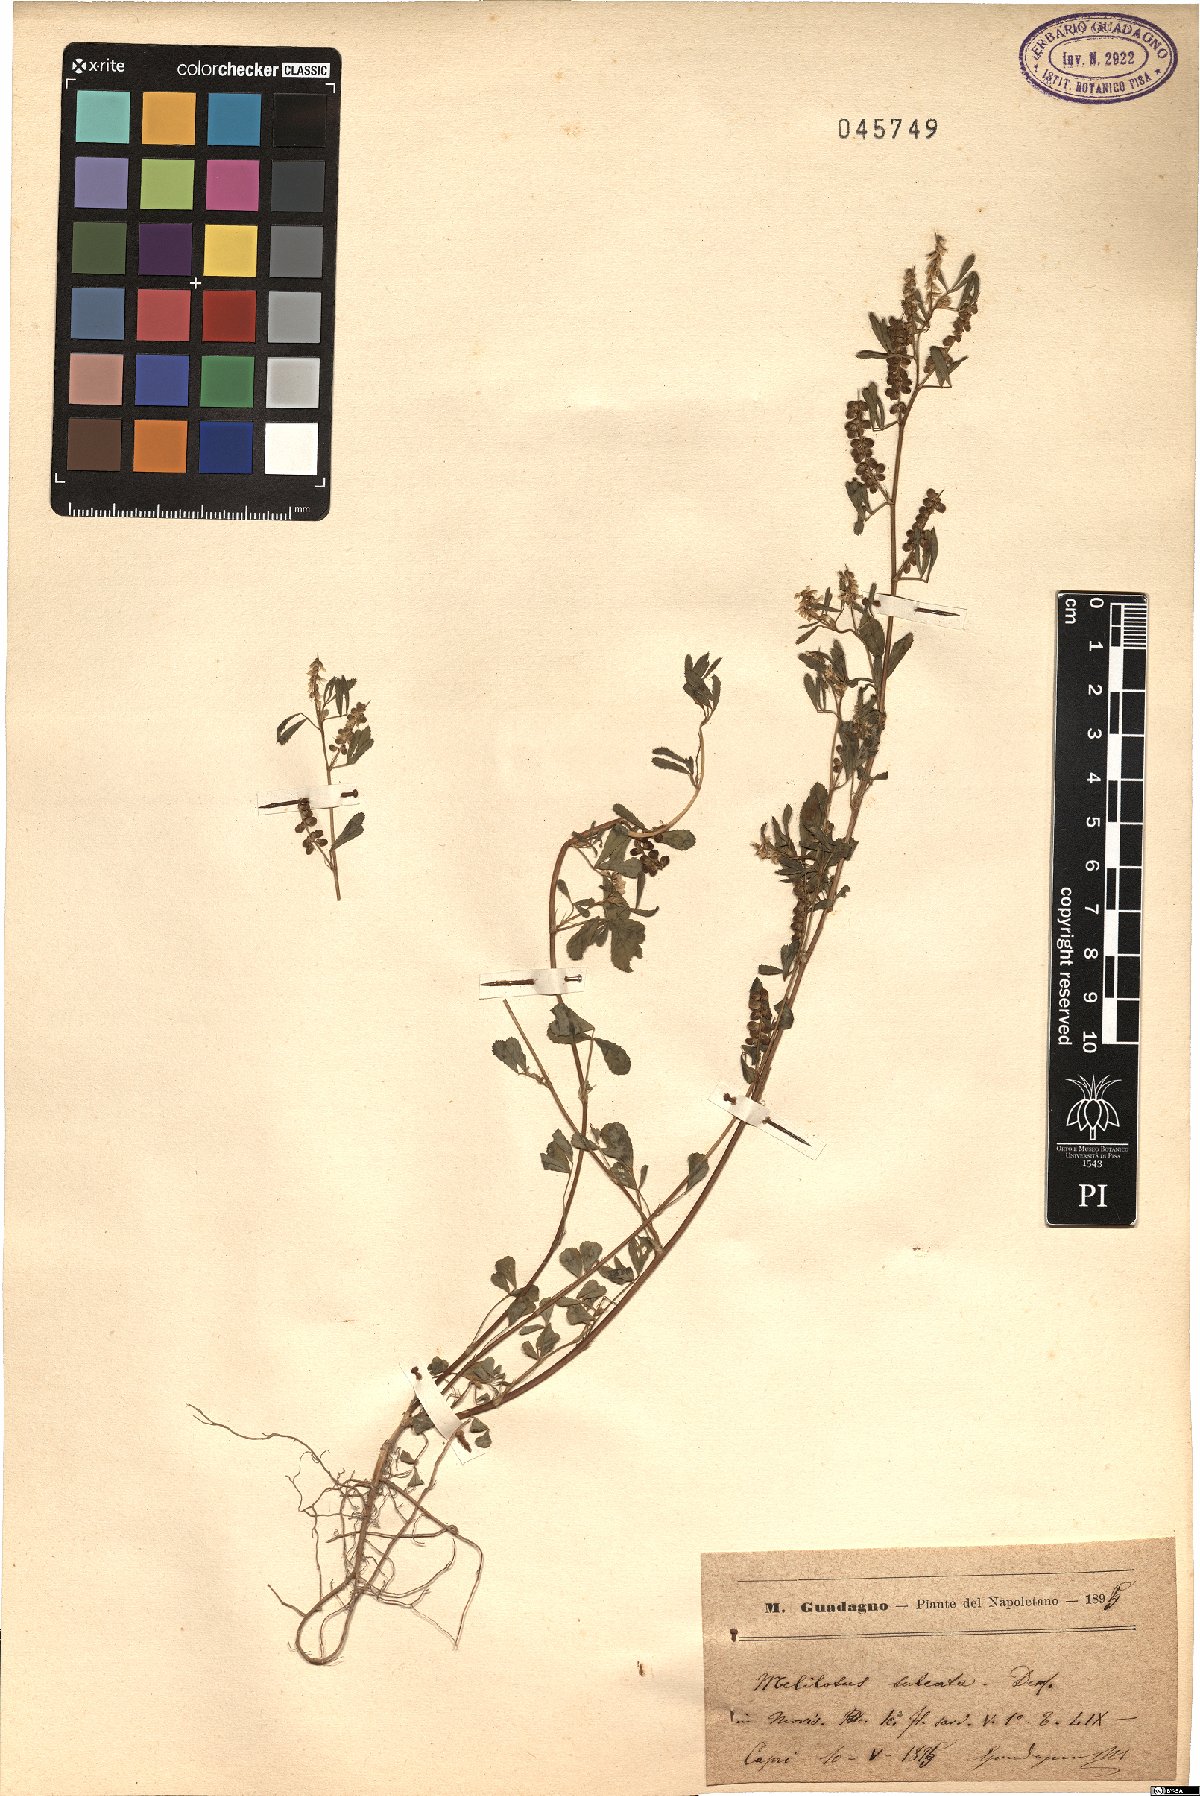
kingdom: Plantae
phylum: Tracheophyta
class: Magnoliopsida
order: Fabales
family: Fabaceae
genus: Melilotus
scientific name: Melilotus sulcatus
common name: Furrowed melilot
